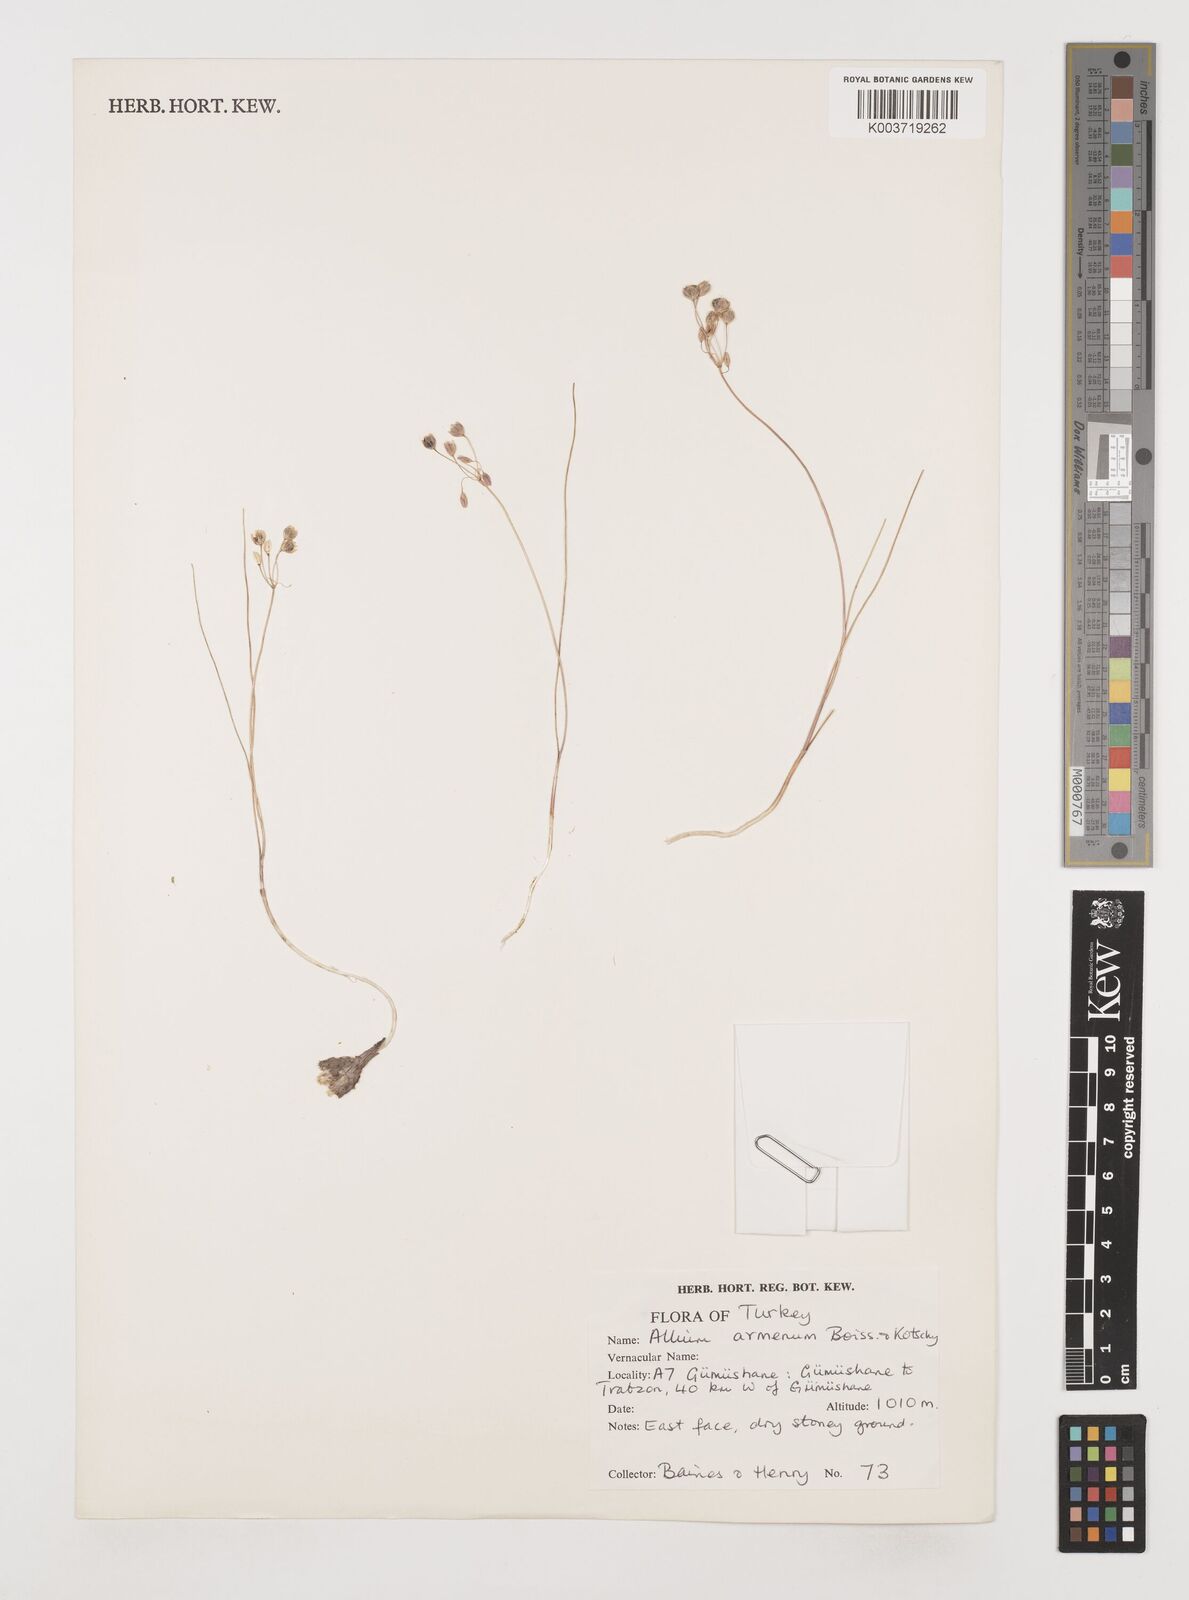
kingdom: Plantae
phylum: Tracheophyta
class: Liliopsida
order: Asparagales
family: Amaryllidaceae
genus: Allium
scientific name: Allium armenum
